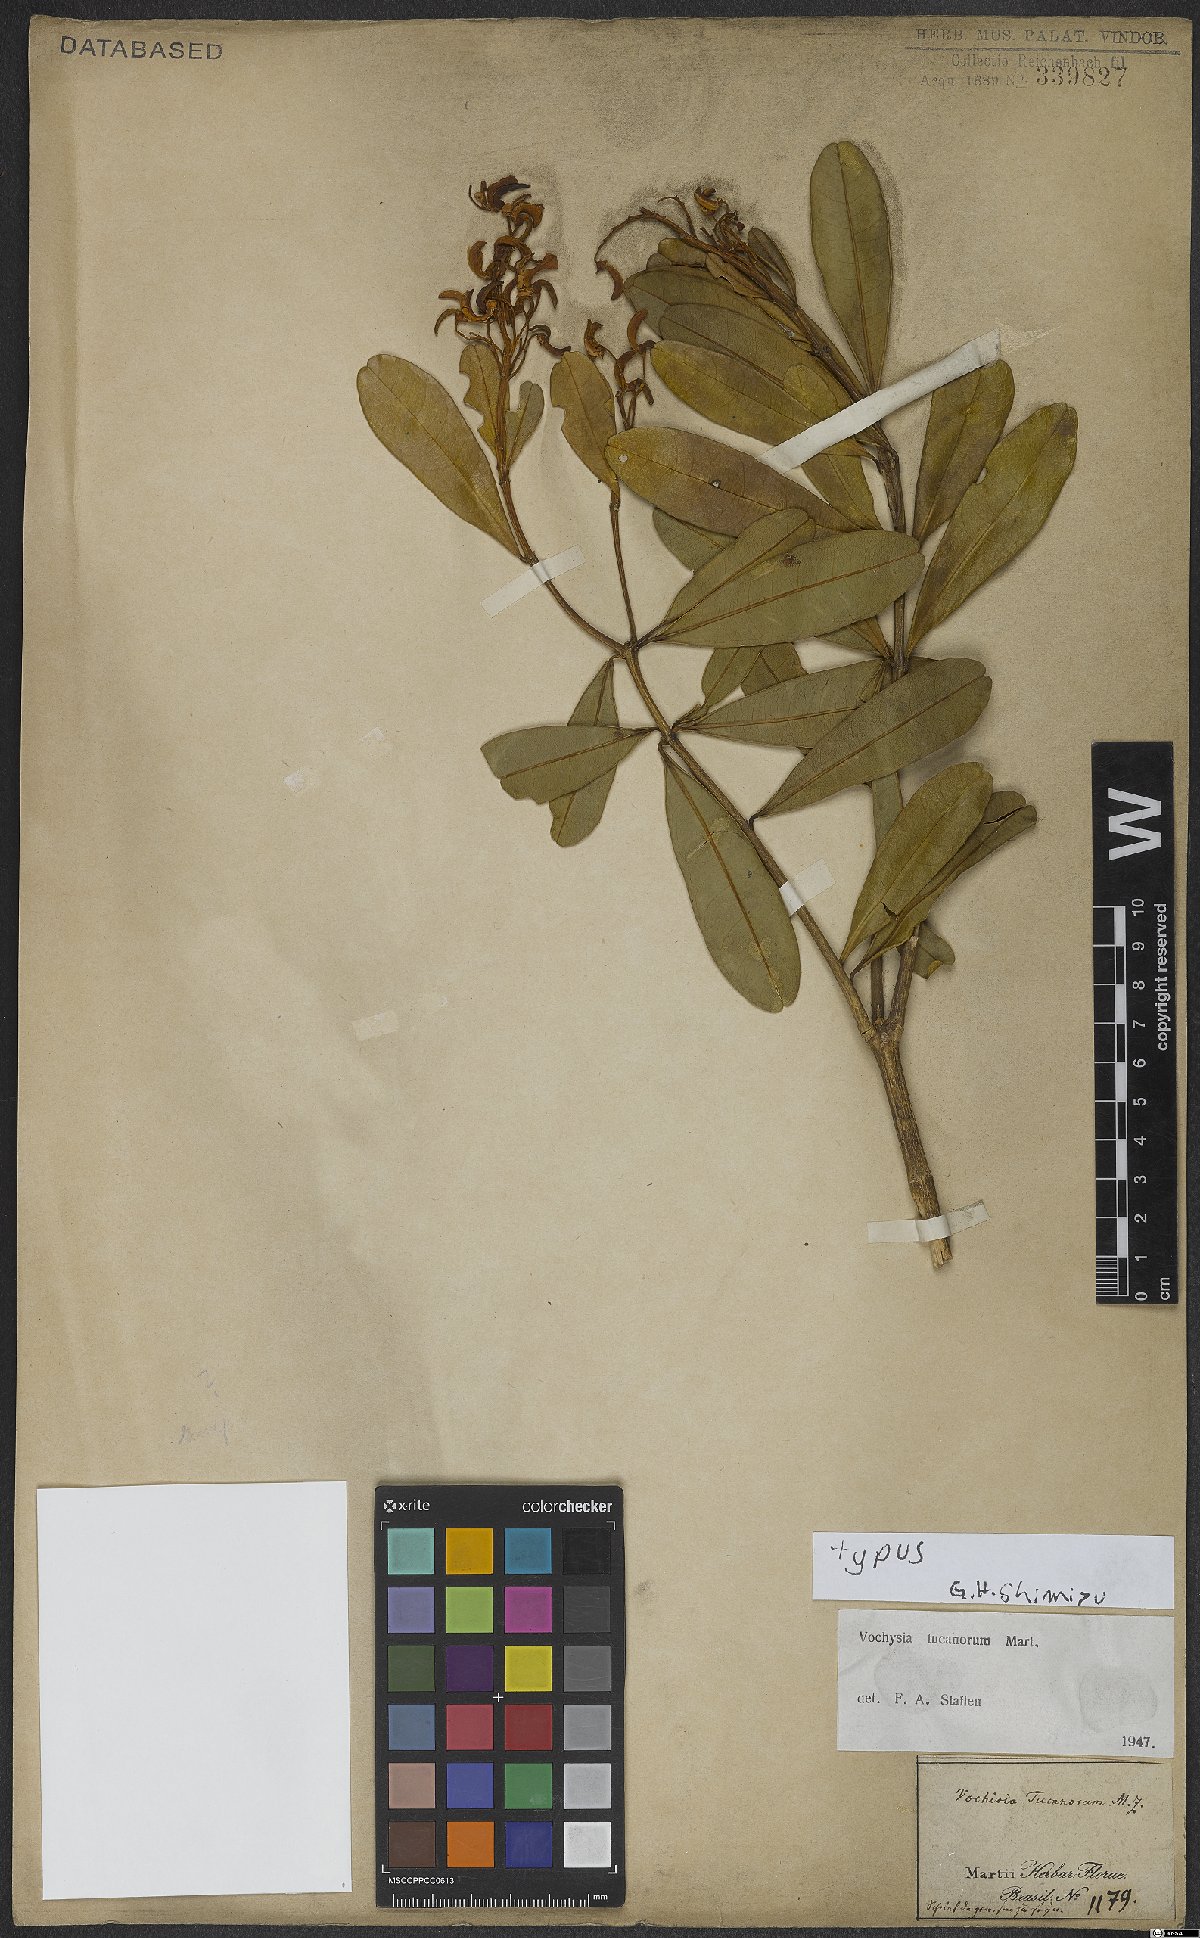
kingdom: Plantae
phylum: Tracheophyta
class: Magnoliopsida
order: Myrtales
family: Vochysiaceae
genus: Vochysia
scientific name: Vochysia tucanorum
